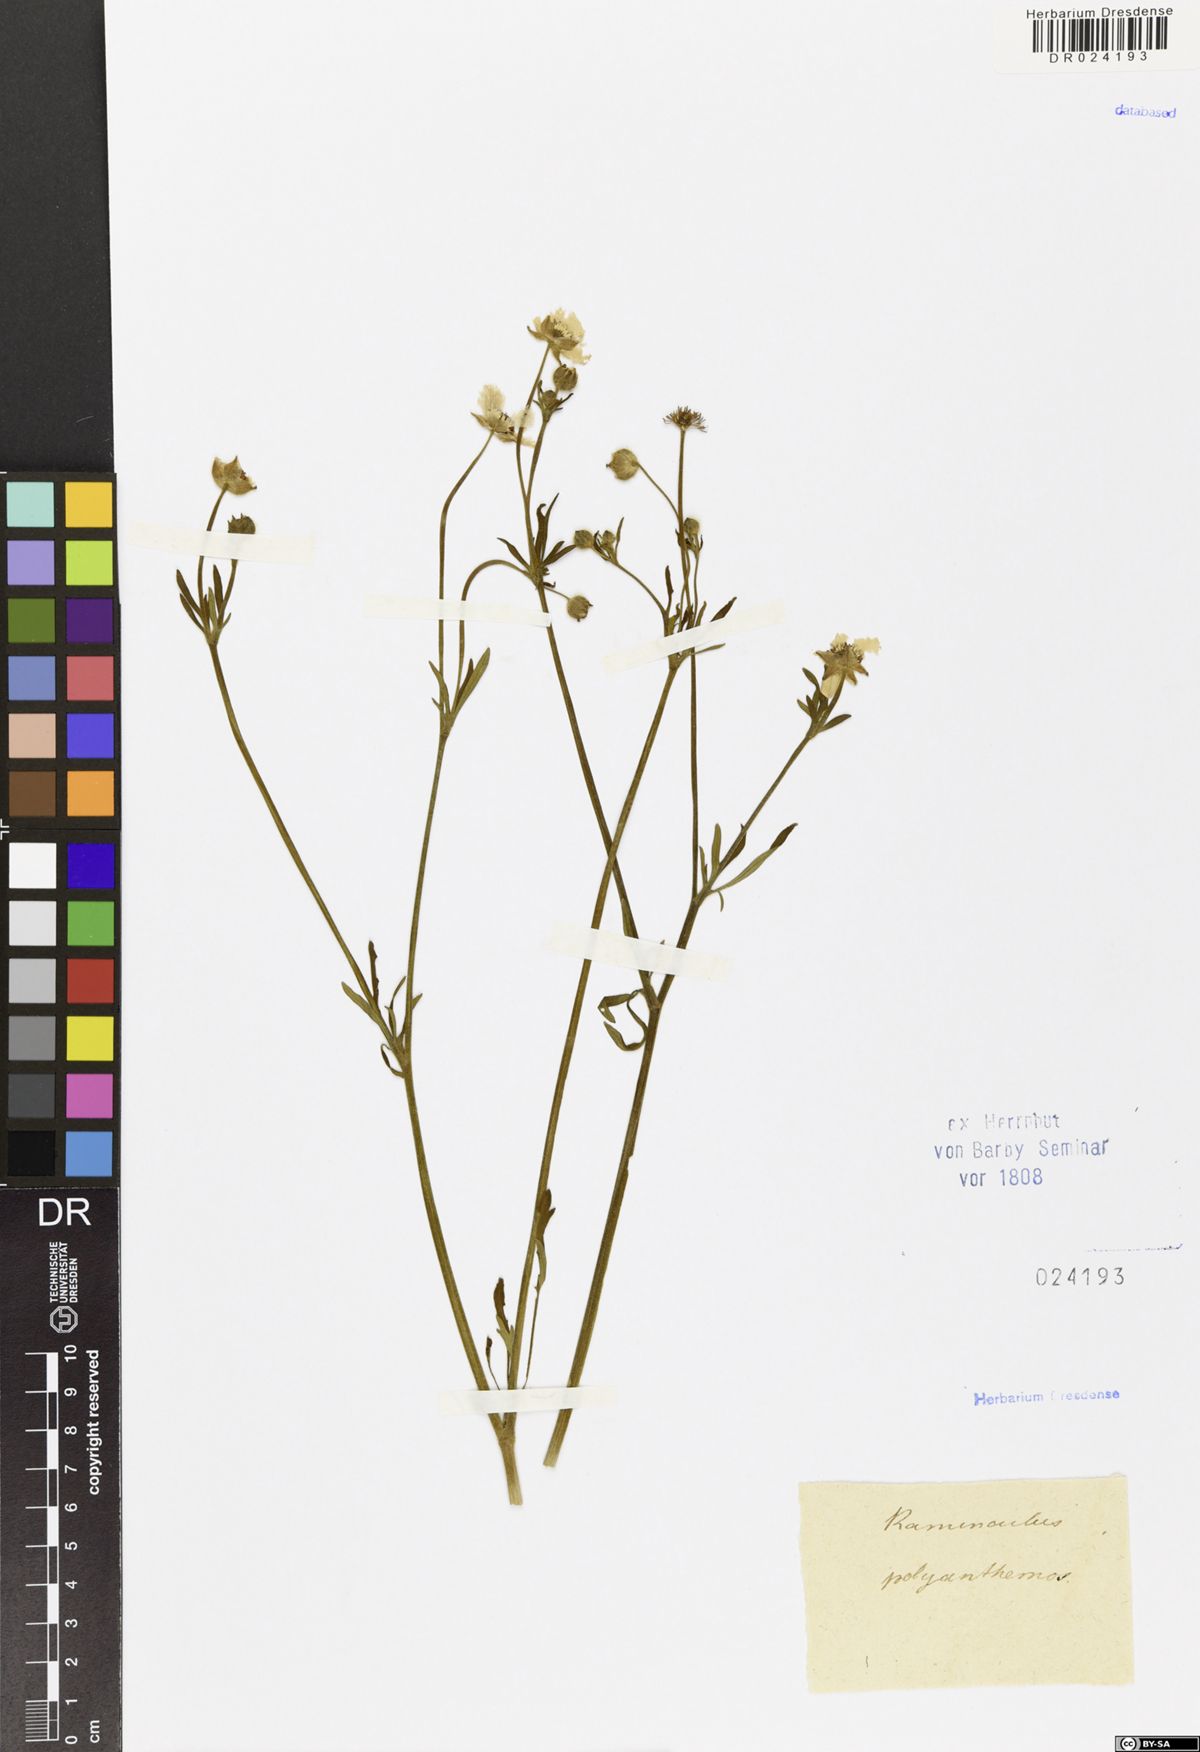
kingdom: Plantae
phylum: Tracheophyta
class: Magnoliopsida
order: Ranunculales
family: Ranunculaceae
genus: Ranunculus
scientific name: Ranunculus polyanthemos
